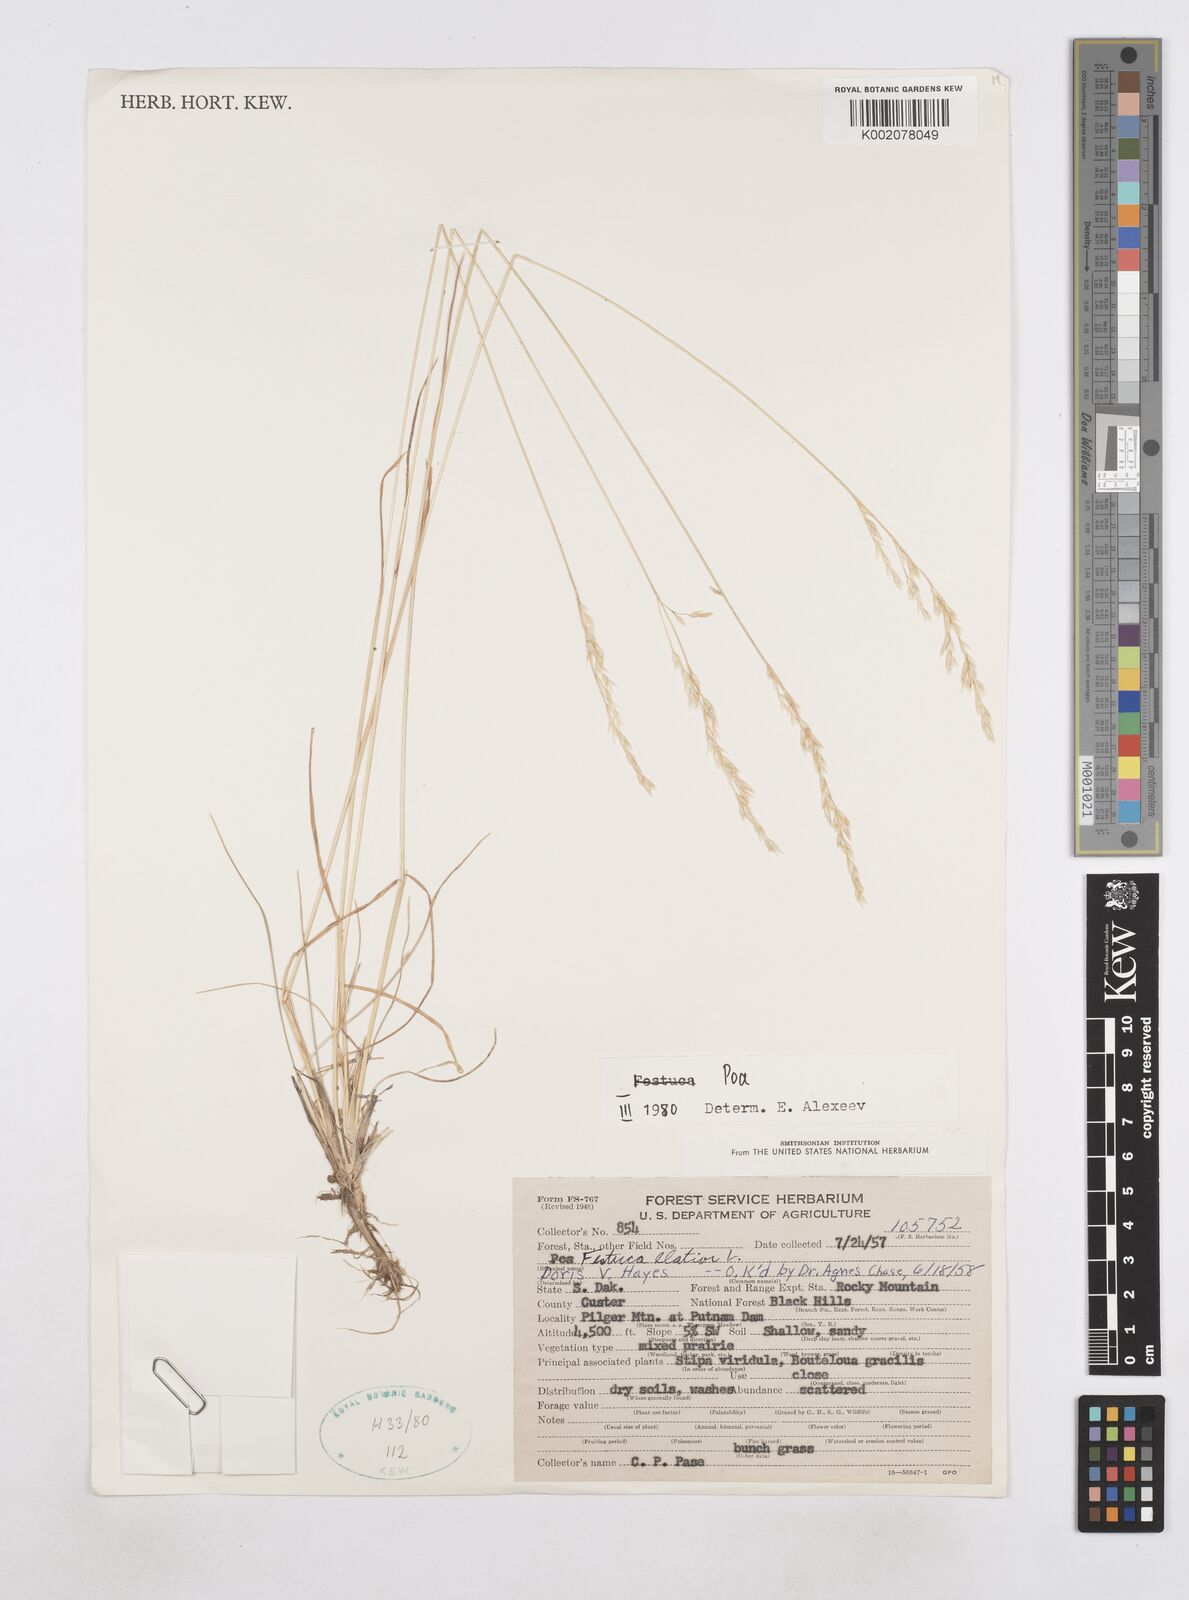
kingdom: Plantae
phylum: Tracheophyta
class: Liliopsida
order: Poales
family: Poaceae
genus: Poa
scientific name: Poa
